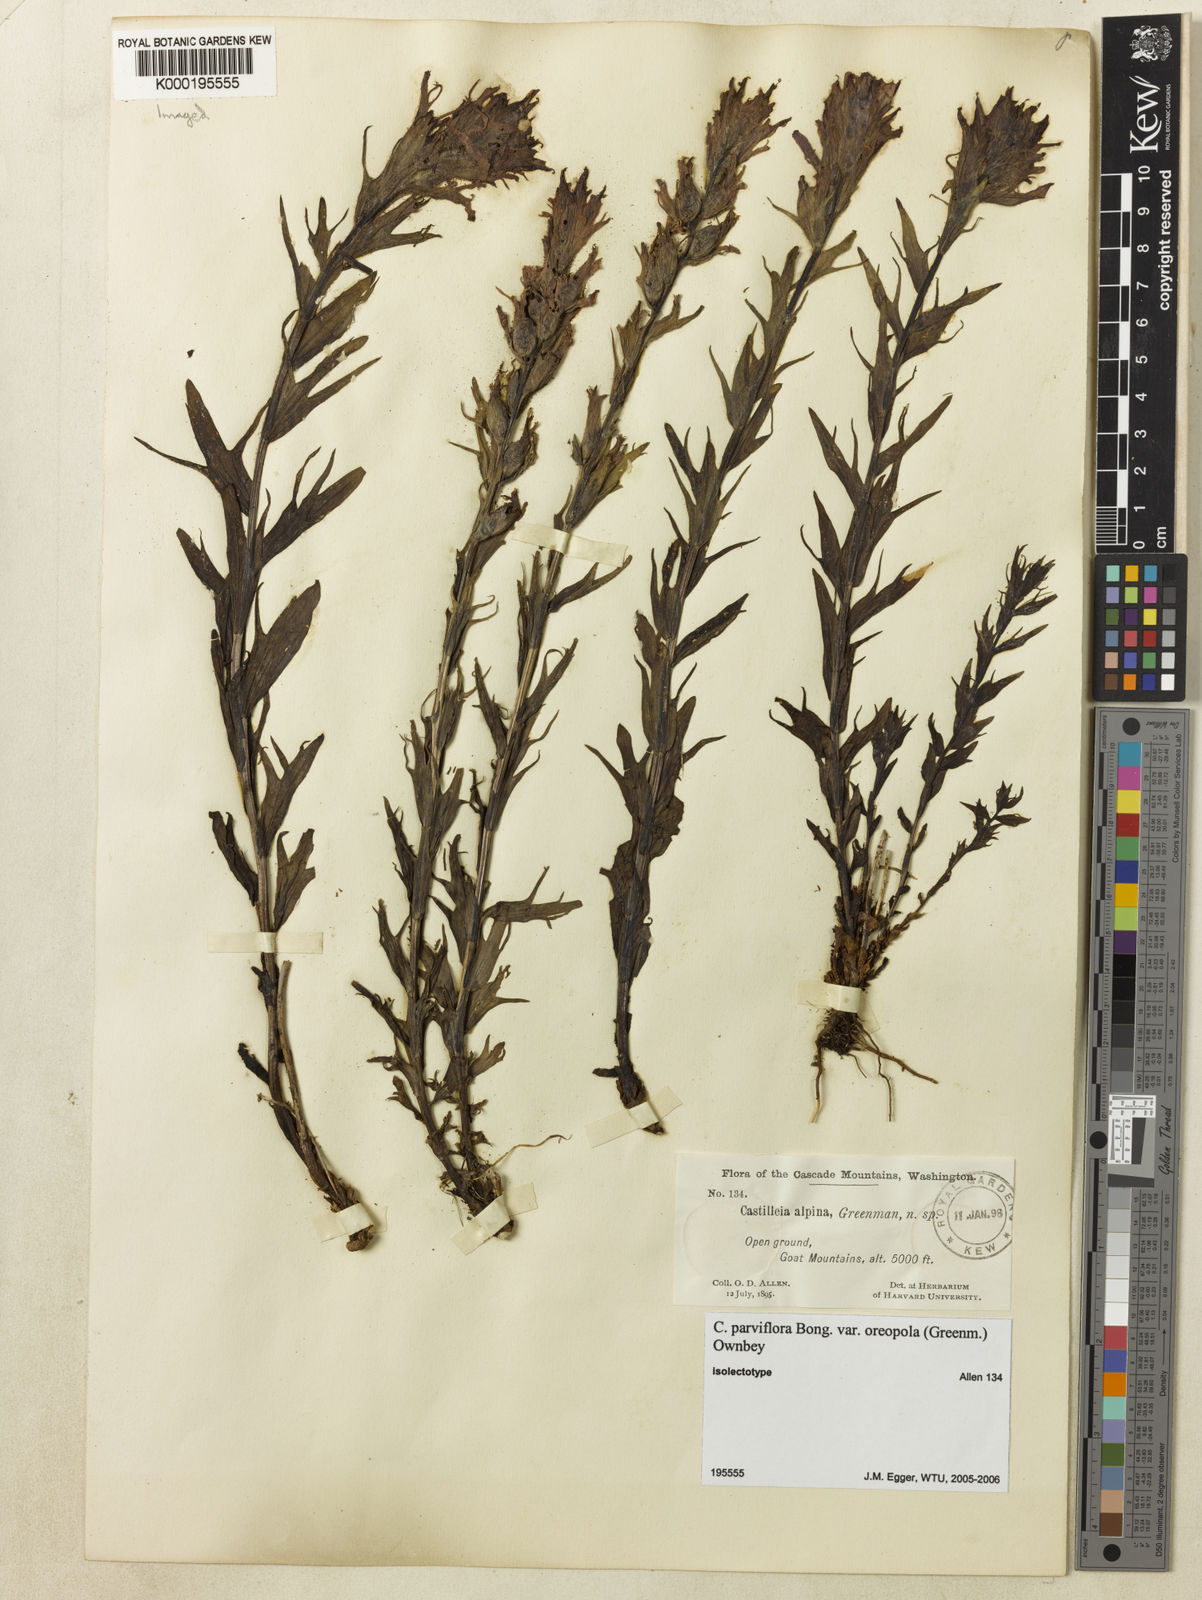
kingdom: Plantae
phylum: Tracheophyta
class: Magnoliopsida
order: Lamiales
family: Orobanchaceae
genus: Castilleja
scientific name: Castilleja parviflora
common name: Mountain paintbrush
